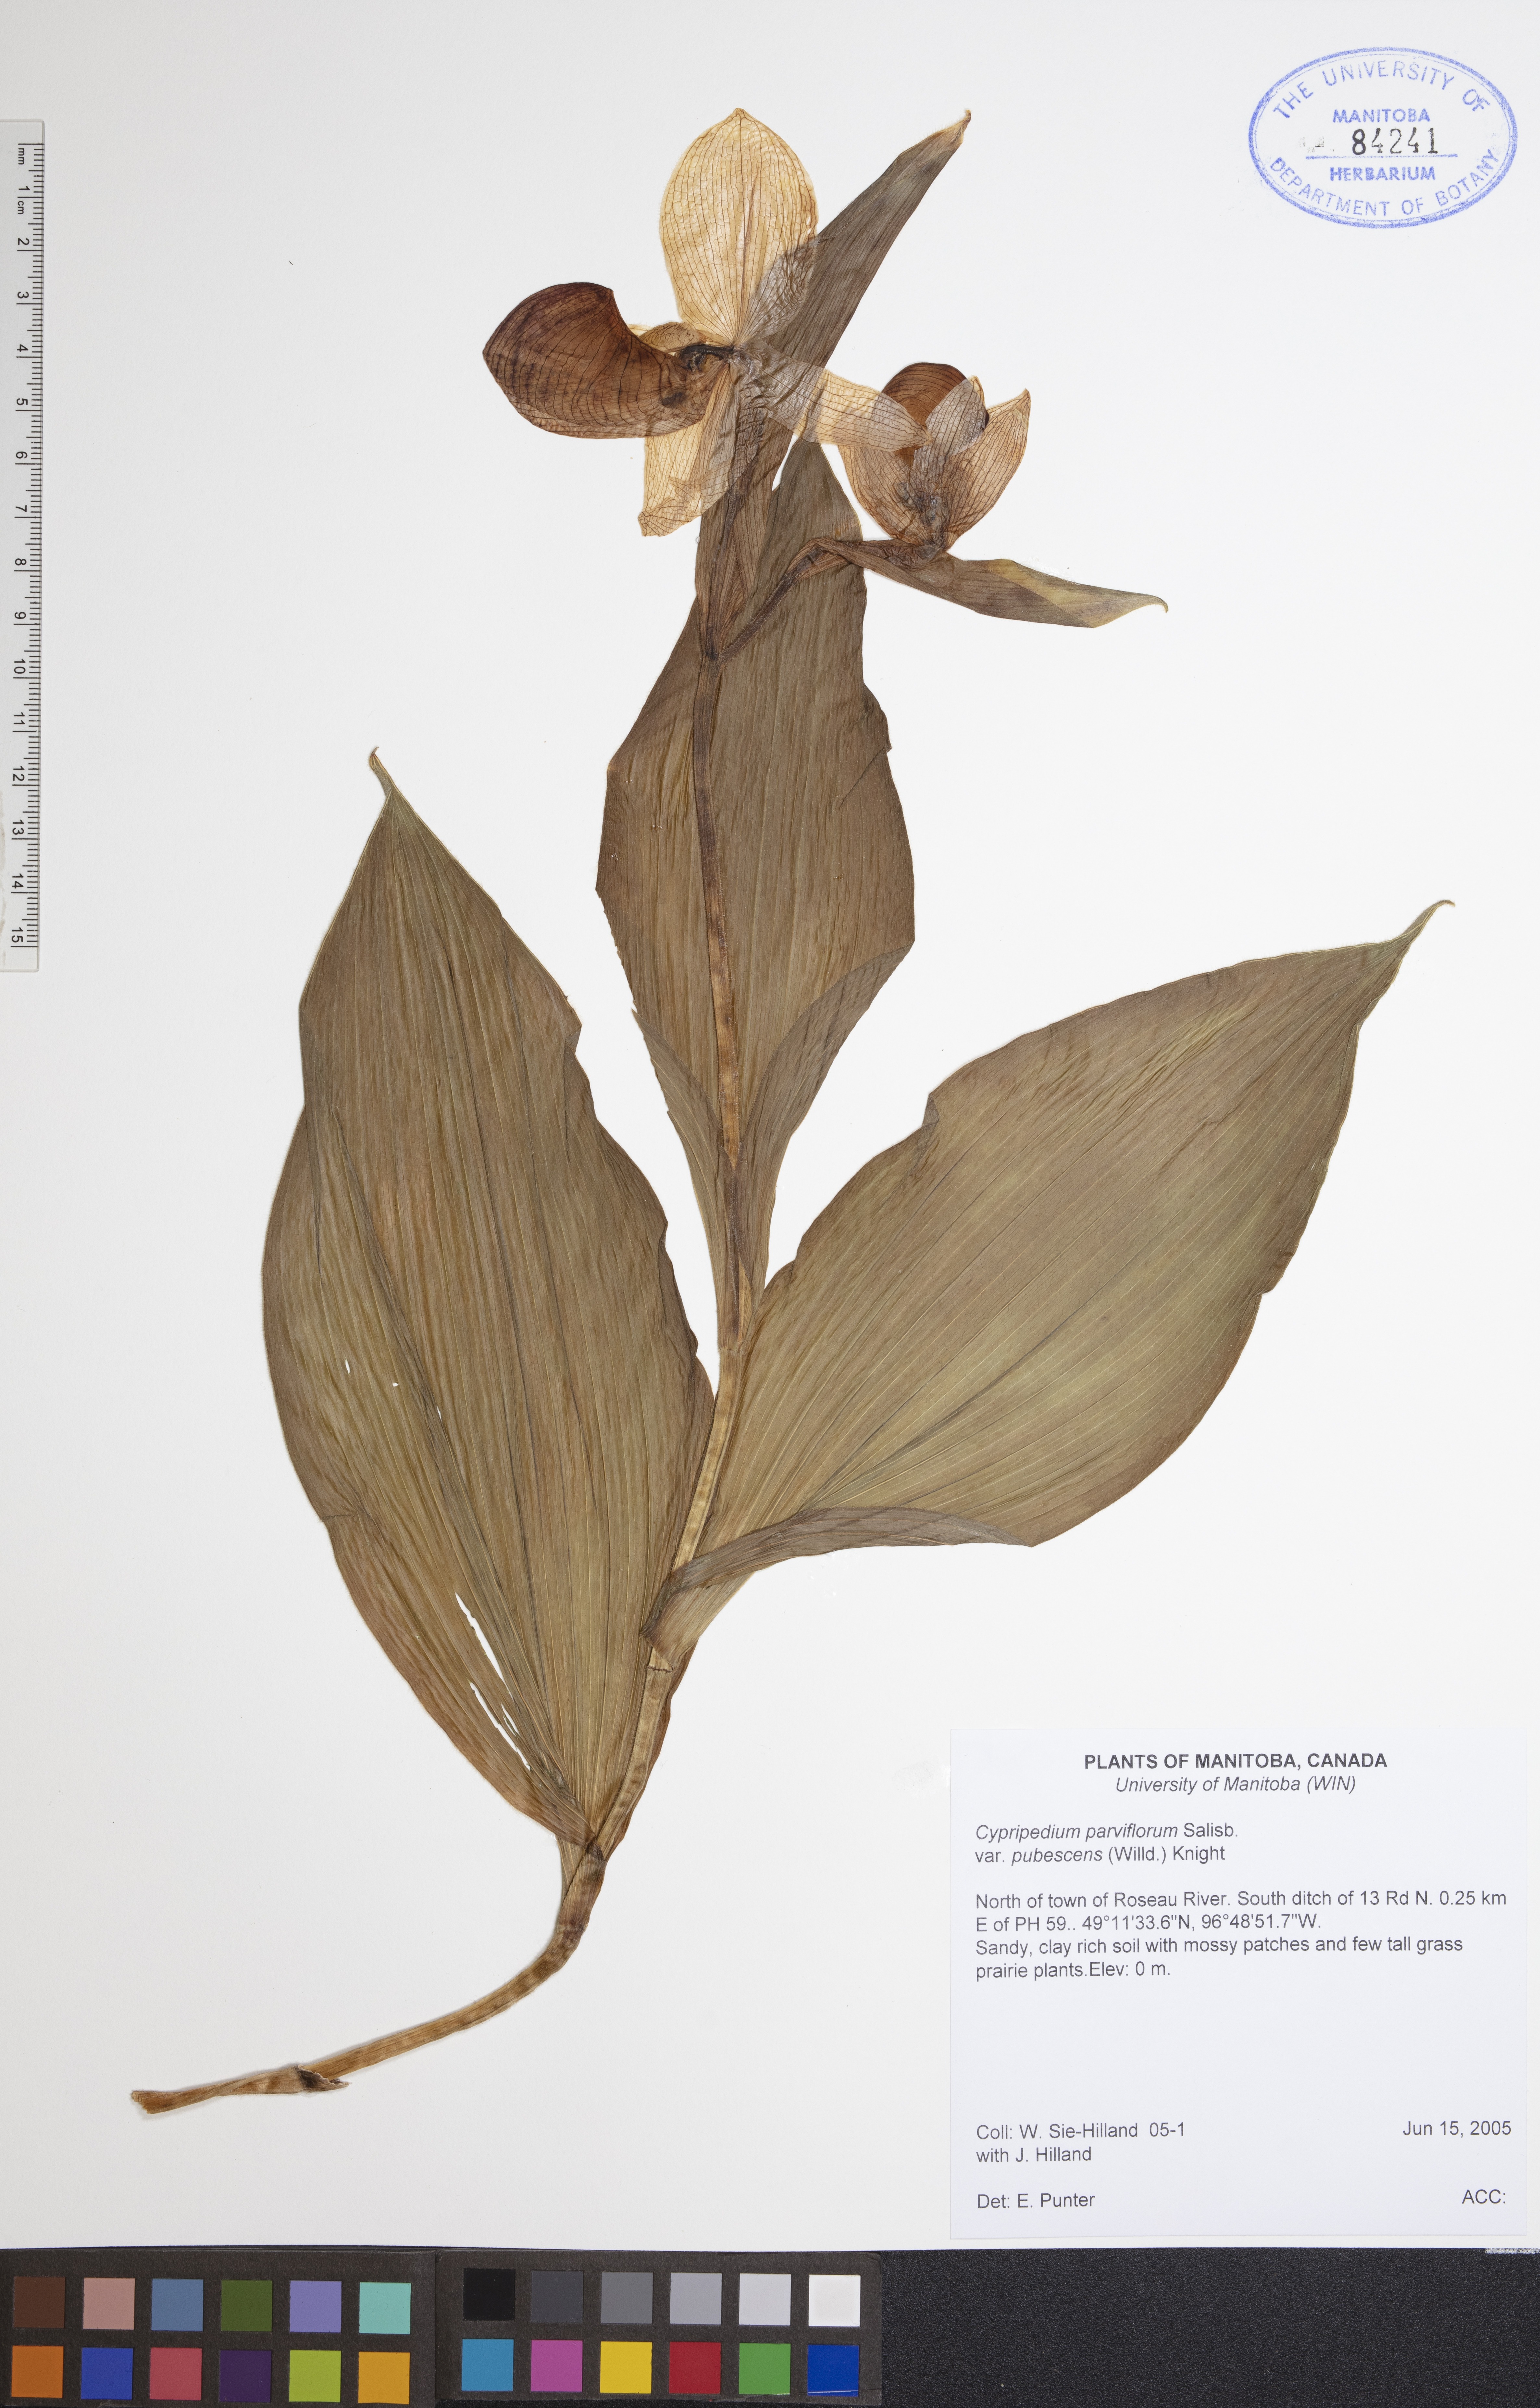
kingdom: Plantae
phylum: Tracheophyta
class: Liliopsida
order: Asparagales
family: Orchidaceae
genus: Cypripedium
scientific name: Cypripedium parviflorum
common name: American yellow lady's-slipper
